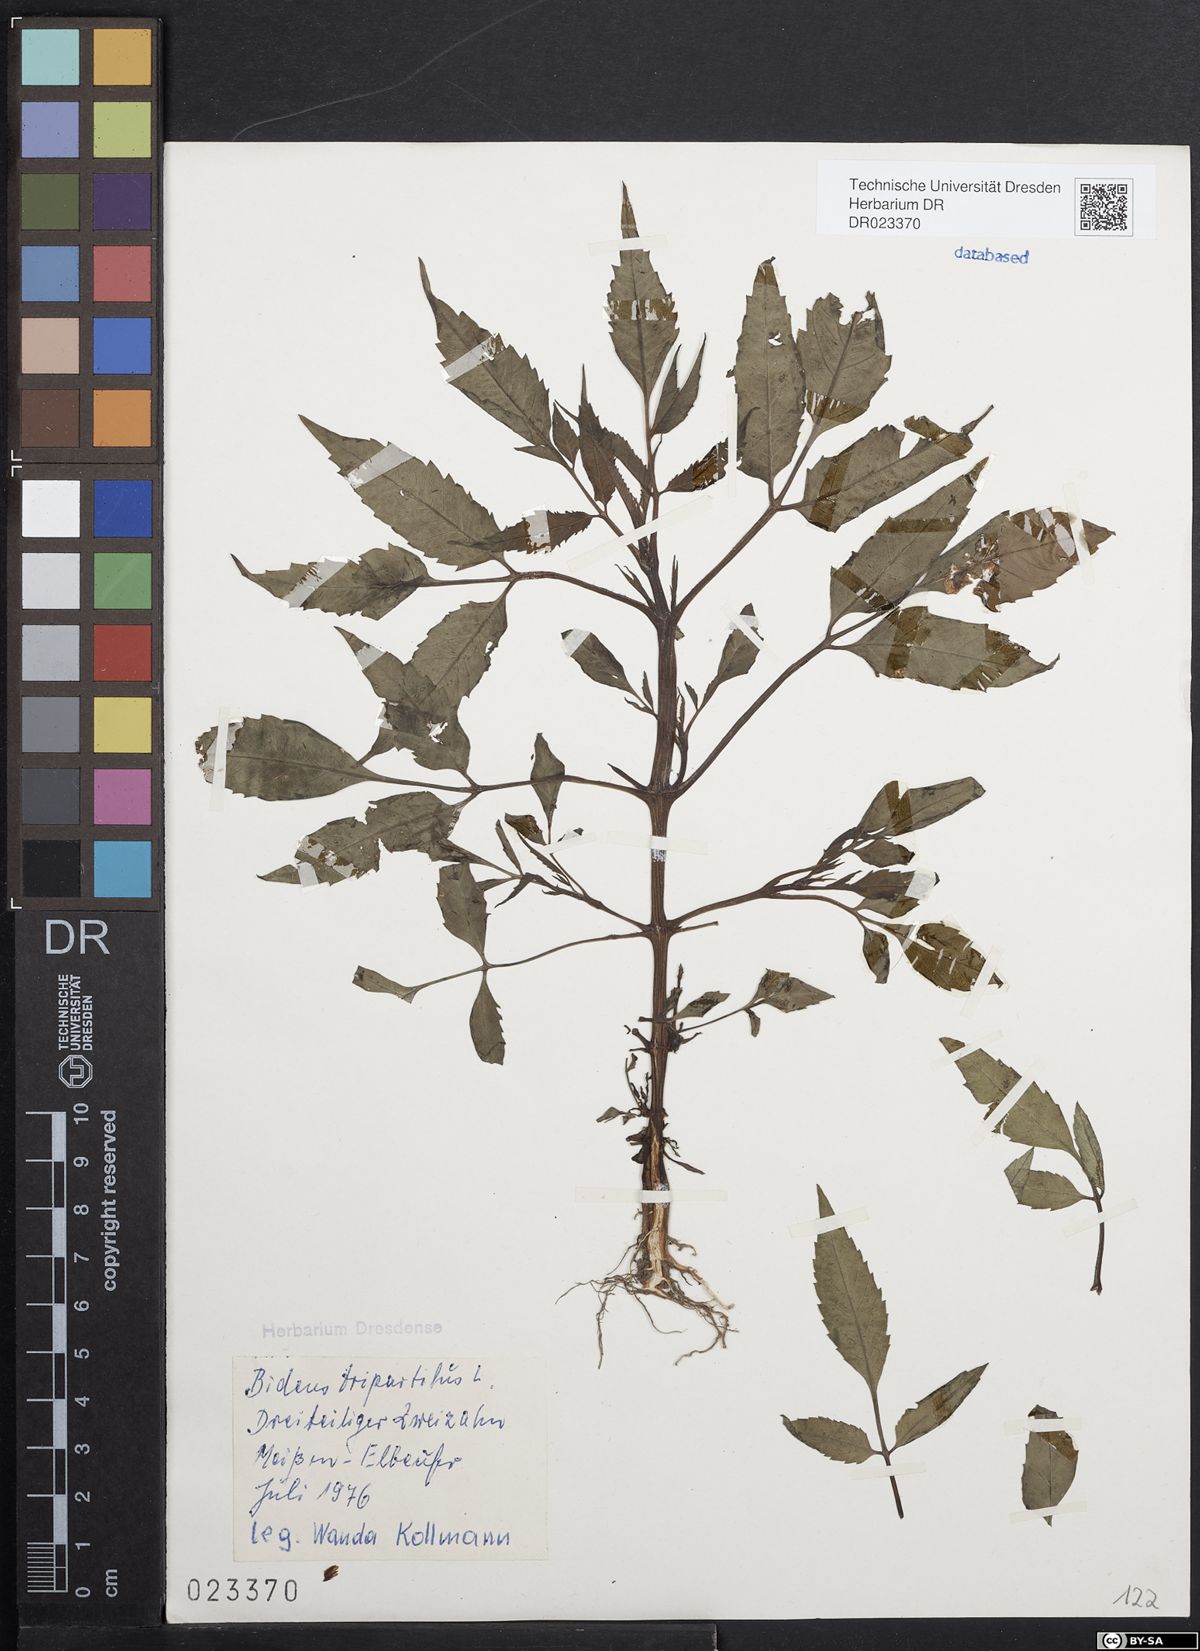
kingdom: Plantae
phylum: Tracheophyta
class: Magnoliopsida
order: Asterales
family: Asteraceae
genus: Bidens
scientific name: Bidens tripartita
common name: Trifid bur-marigold
